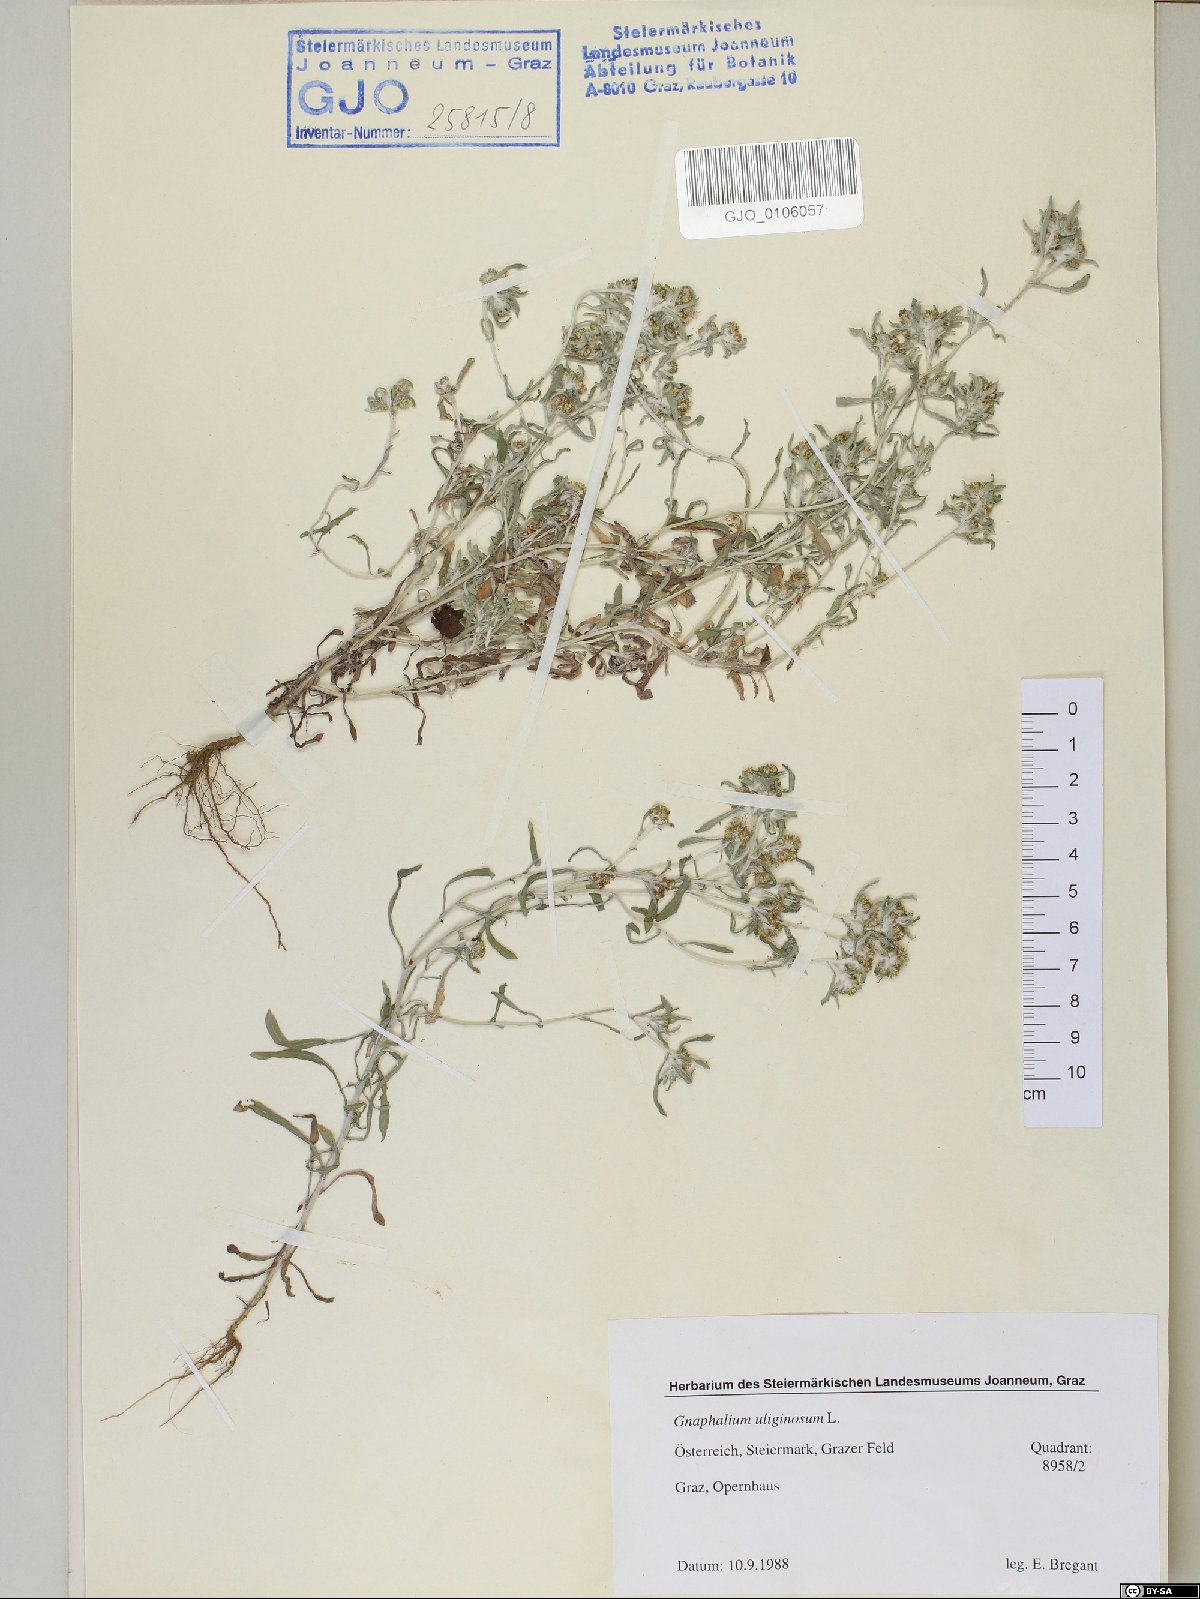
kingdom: Plantae
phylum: Tracheophyta
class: Magnoliopsida
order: Asterales
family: Asteraceae
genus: Gnaphalium
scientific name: Gnaphalium uliginosum
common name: Marsh cudweed
